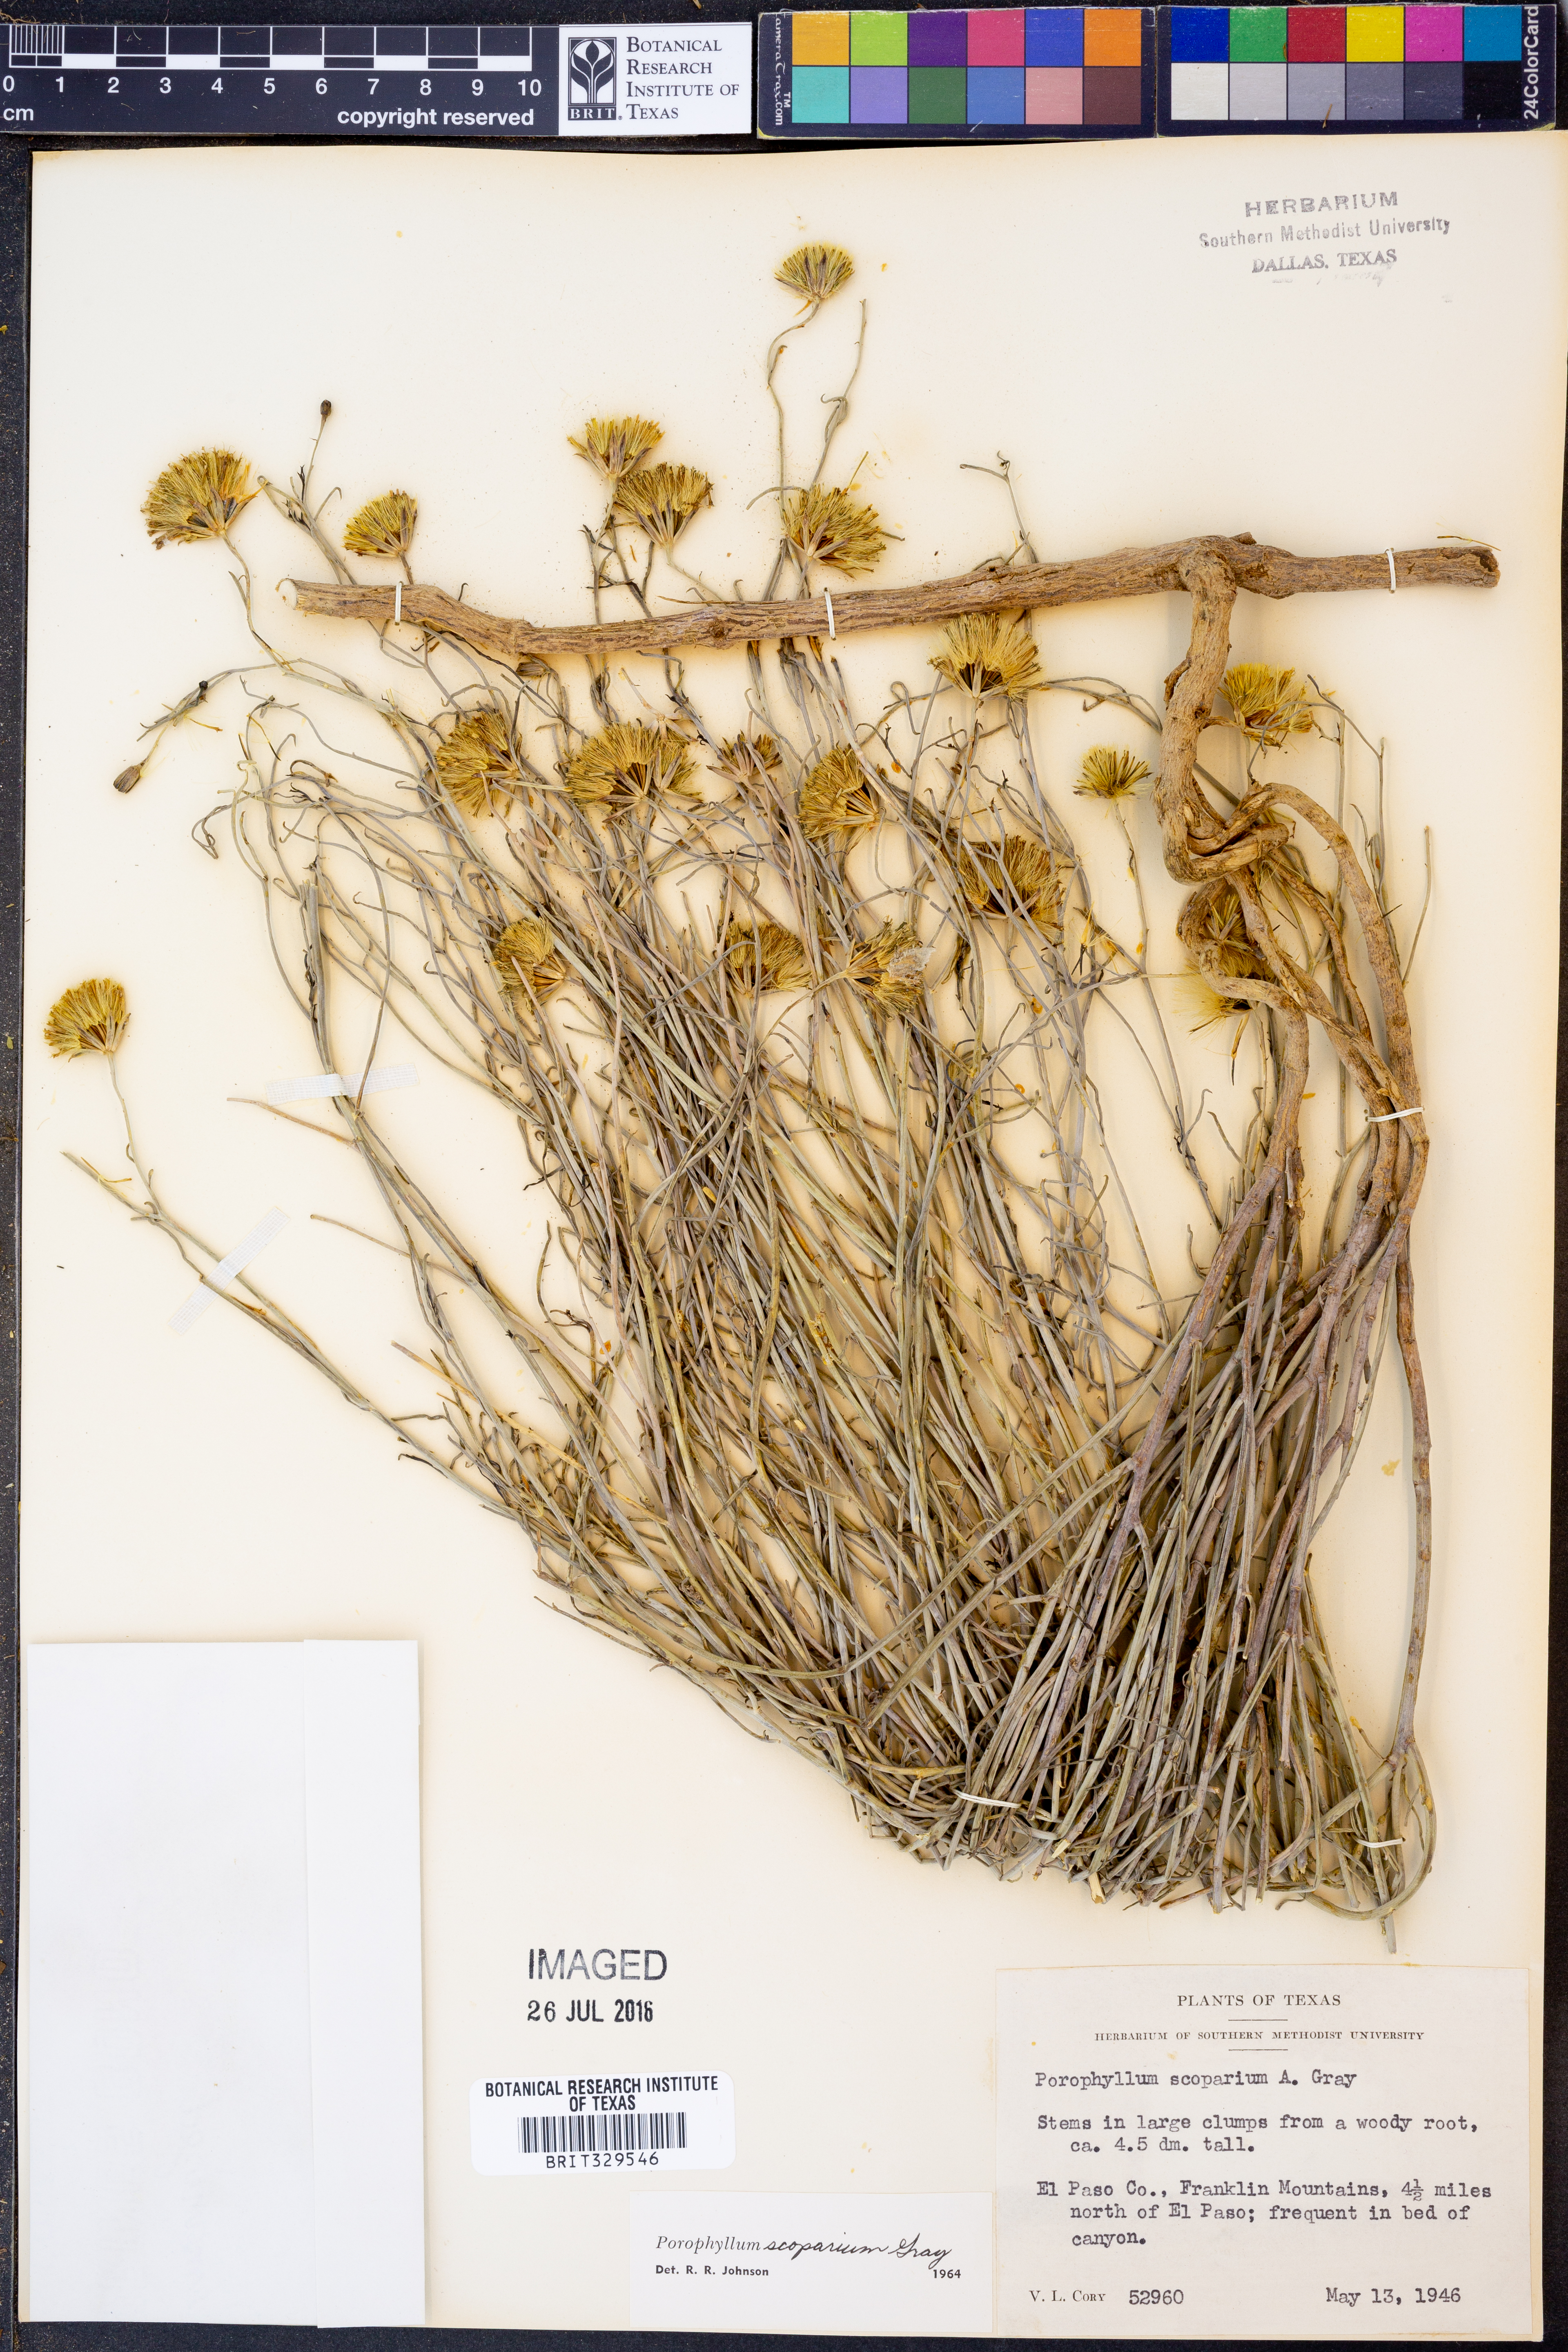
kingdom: Plantae
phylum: Tracheophyta
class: Magnoliopsida
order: Asterales
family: Asteraceae
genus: Porophyllum
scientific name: Porophyllum scoparium
